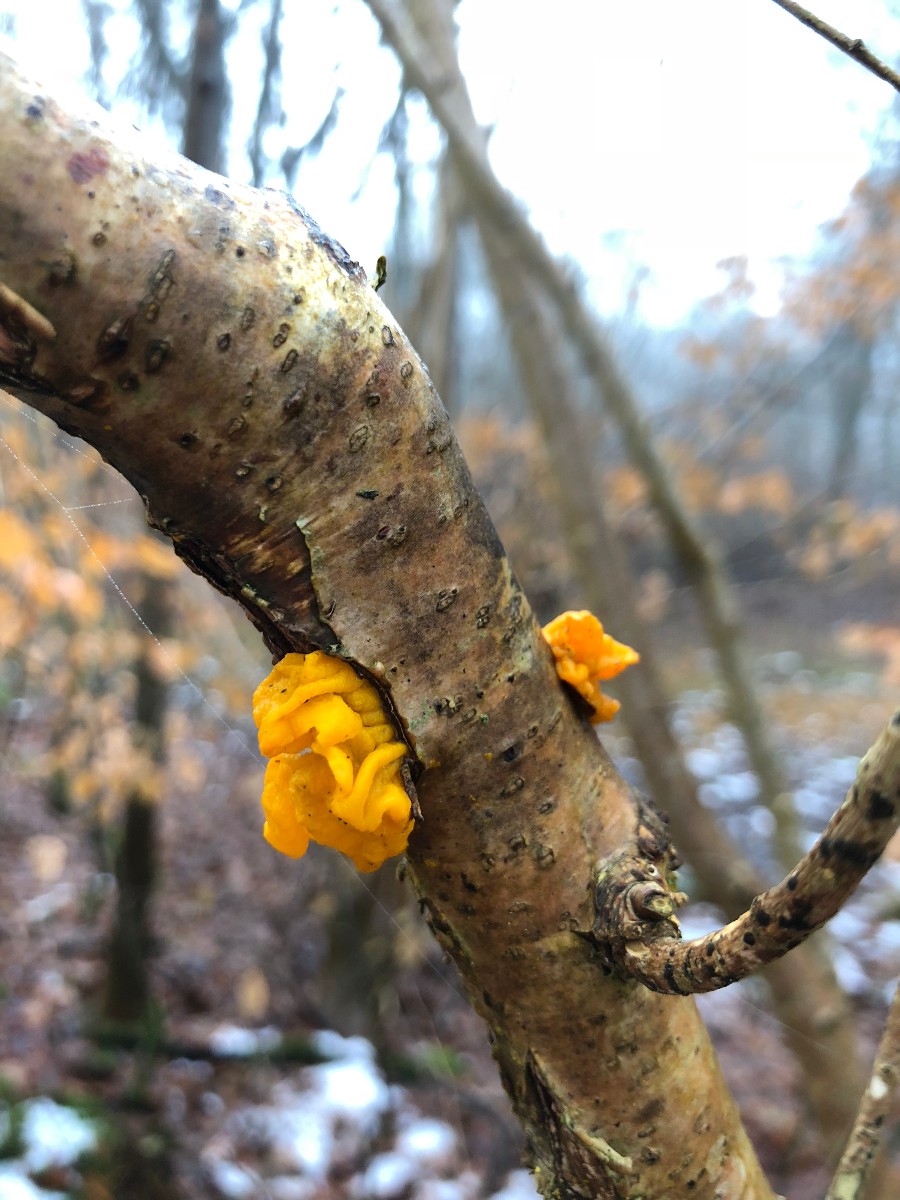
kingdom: Fungi
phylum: Basidiomycota
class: Tremellomycetes
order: Tremellales
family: Tremellaceae
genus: Tremella
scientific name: Tremella mesenterica
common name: gul bævresvamp
